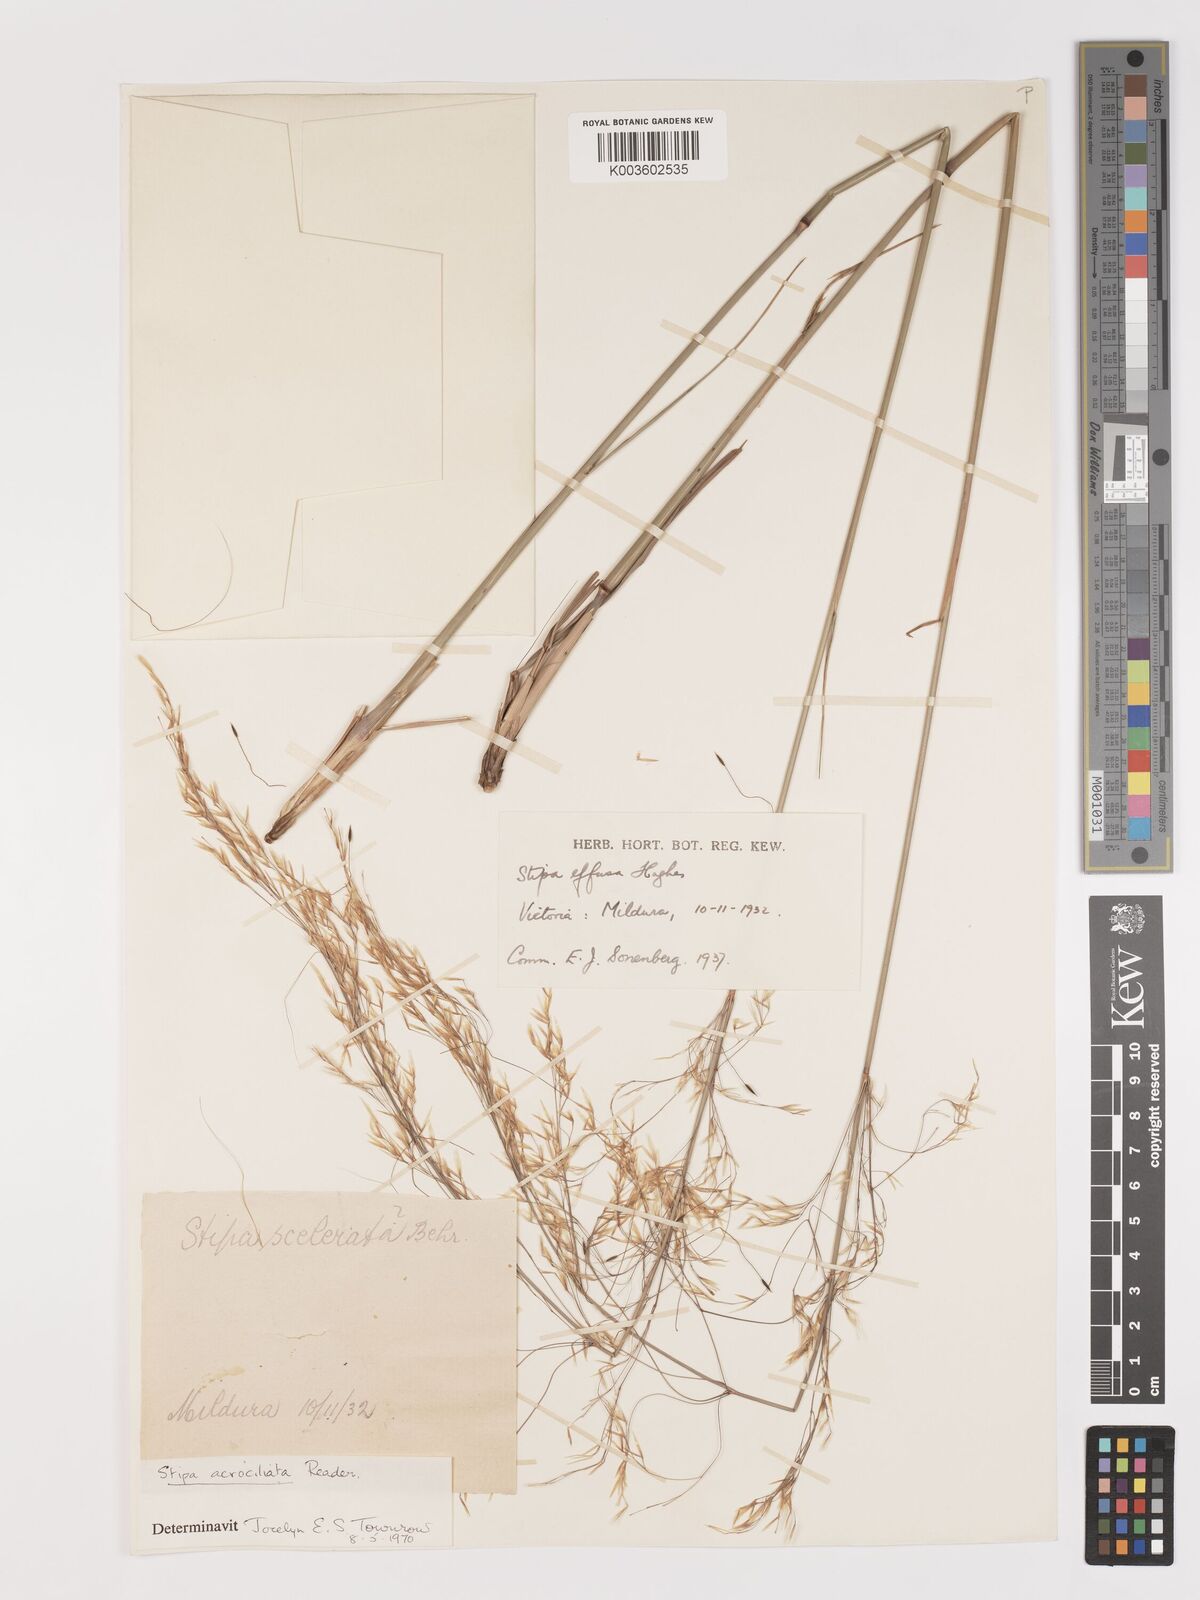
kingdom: Plantae
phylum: Tracheophyta
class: Liliopsida
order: Poales
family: Poaceae
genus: Austrostipa
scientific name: Austrostipa acrociliata
